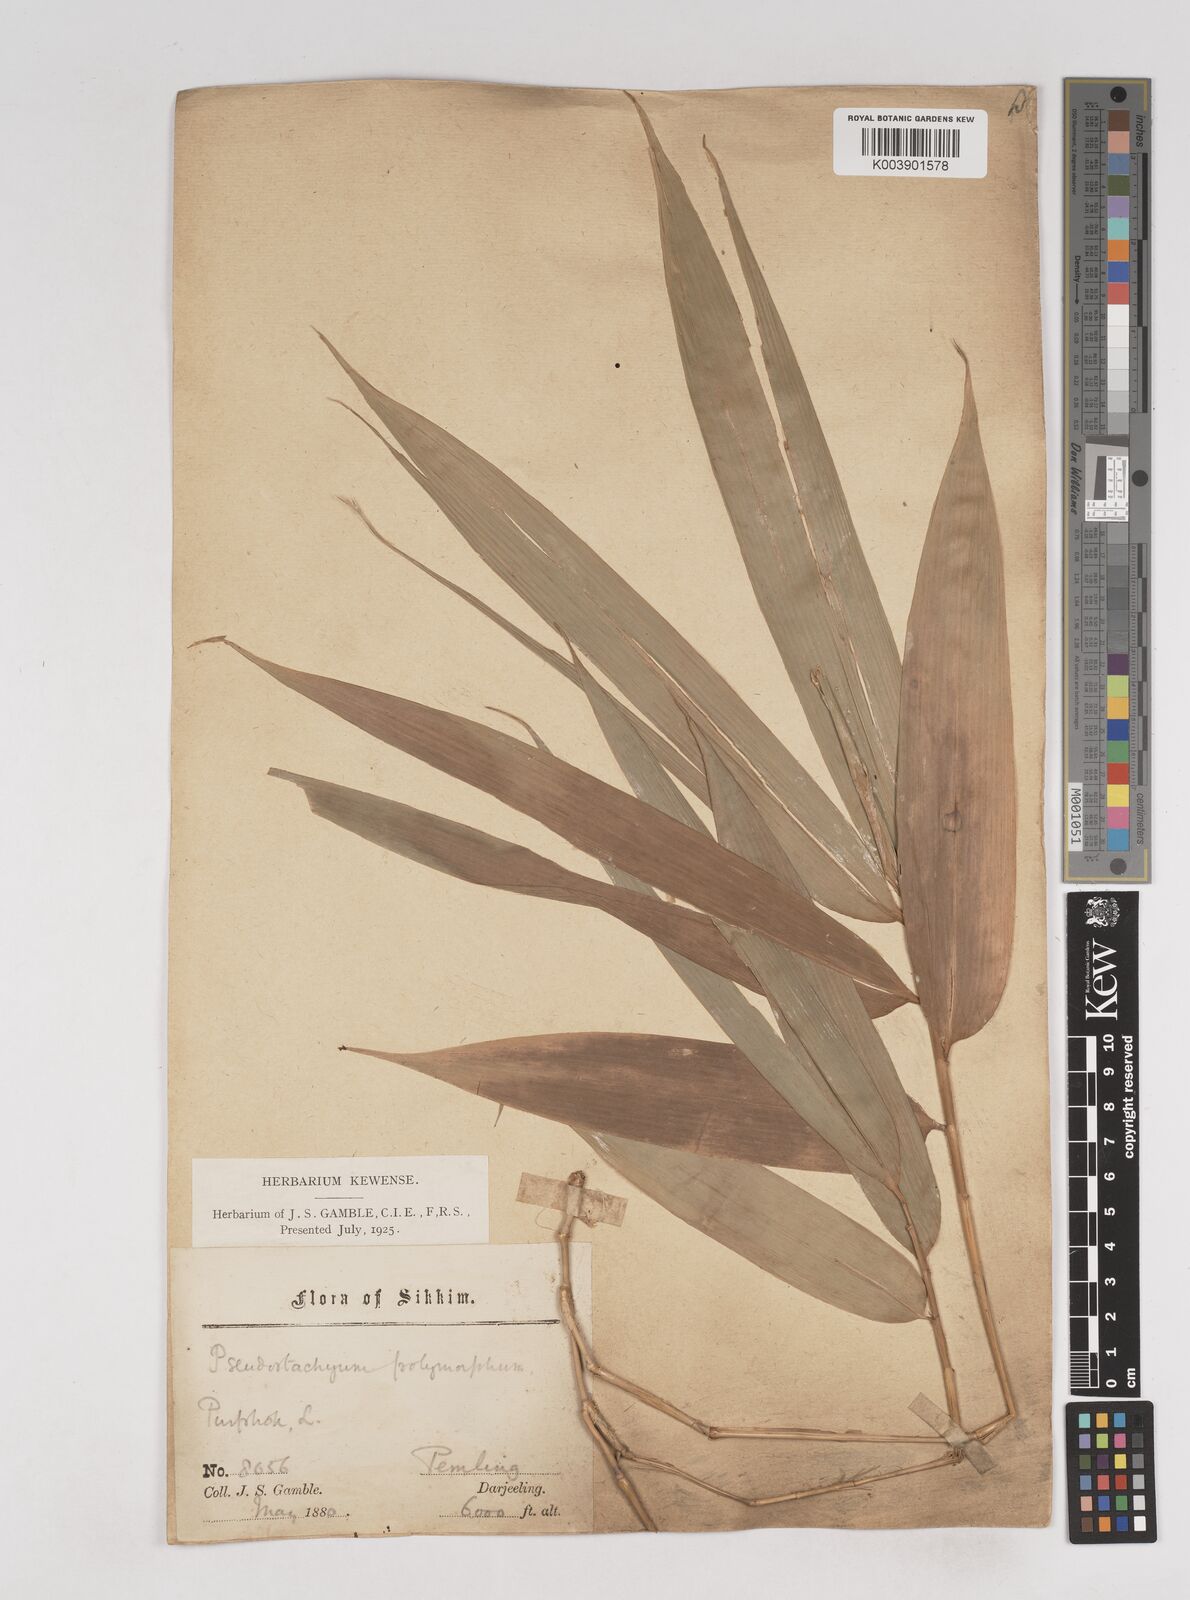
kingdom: Plantae
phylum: Tracheophyta
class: Liliopsida
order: Poales
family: Poaceae
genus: Pseudostachyum
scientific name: Pseudostachyum polymorphum
